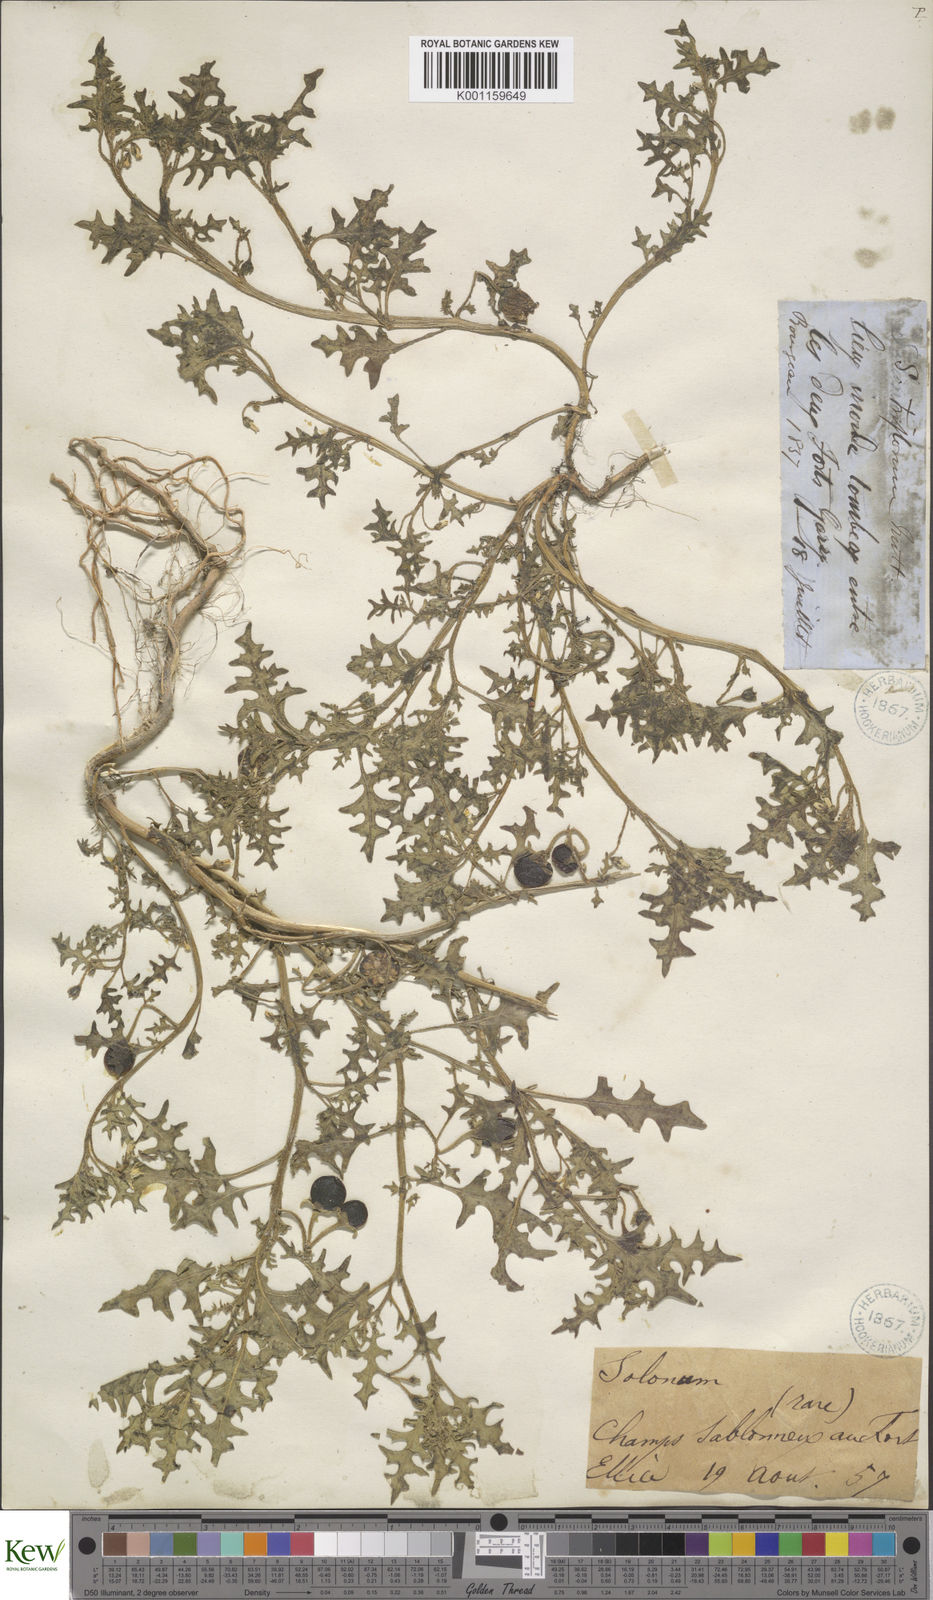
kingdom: Plantae
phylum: Tracheophyta
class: Magnoliopsida
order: Solanales
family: Solanaceae
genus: Solanum
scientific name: Solanum triflorum
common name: Small nightshade
